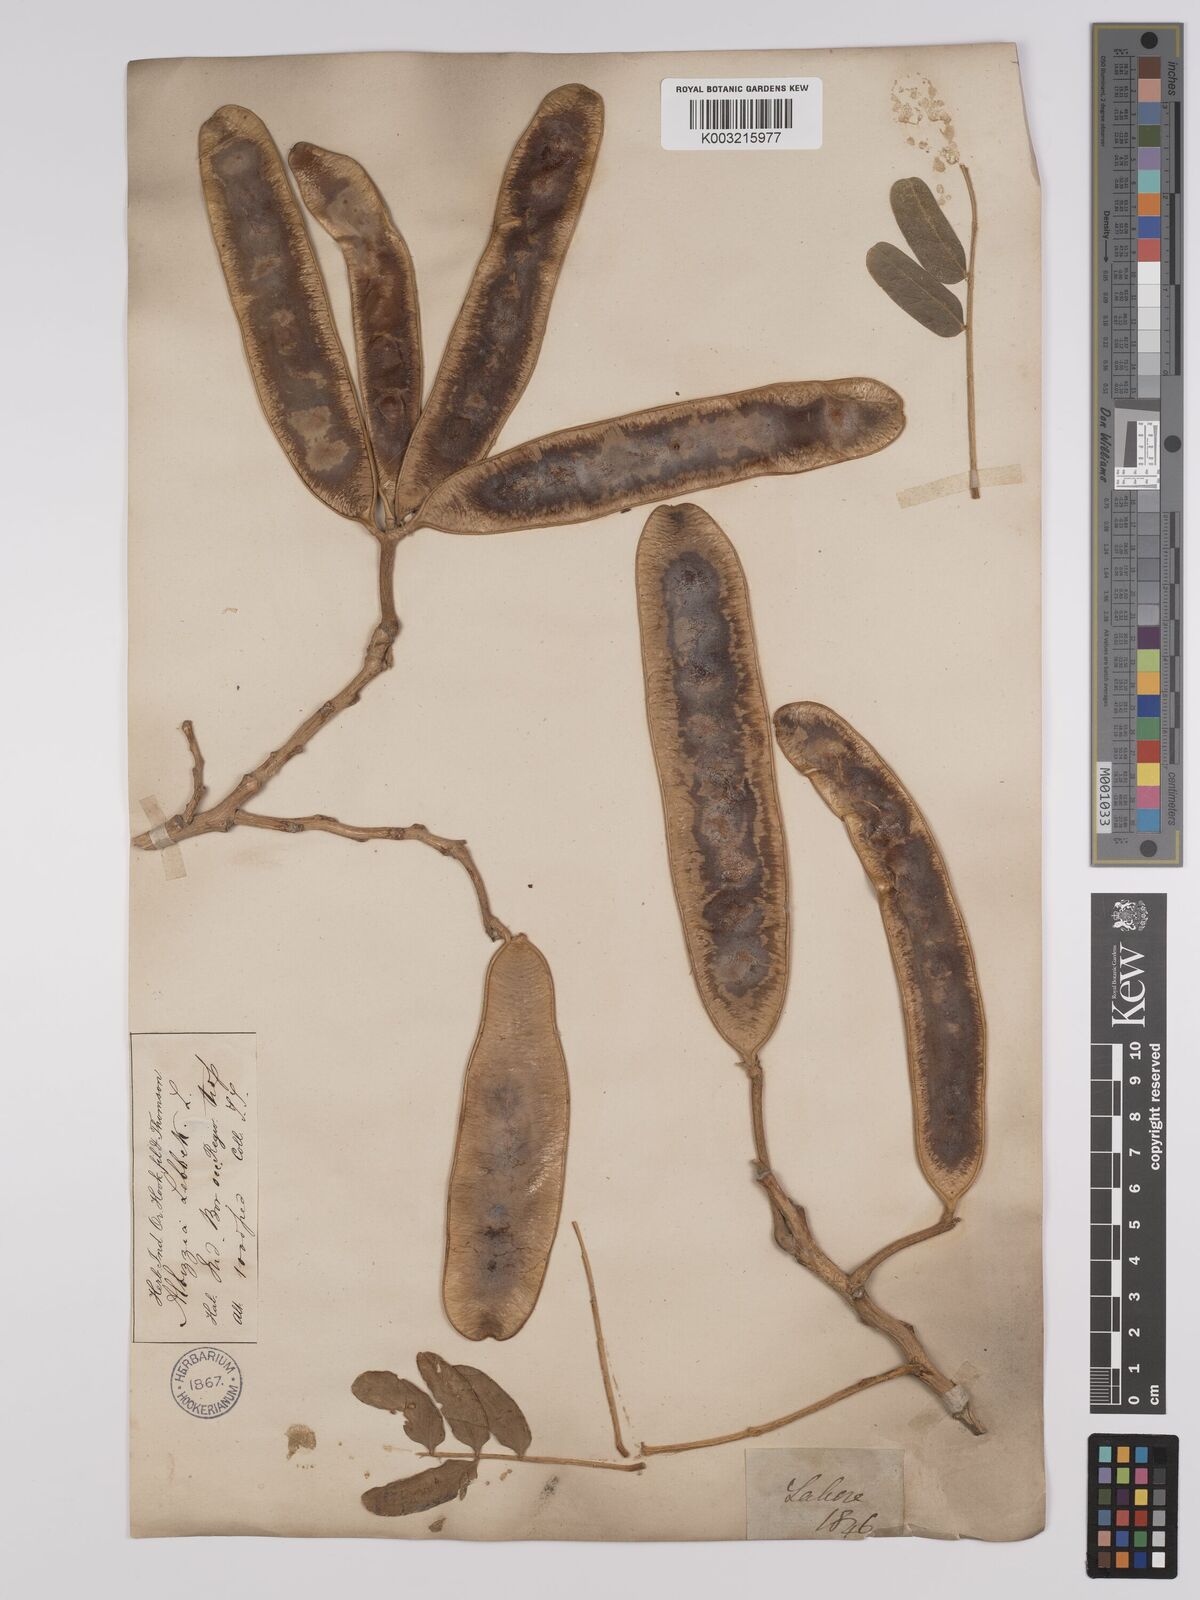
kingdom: Plantae
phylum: Tracheophyta
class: Magnoliopsida
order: Fabales
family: Fabaceae
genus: Albizia
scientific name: Albizia lebbeck
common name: Woman's tongue
